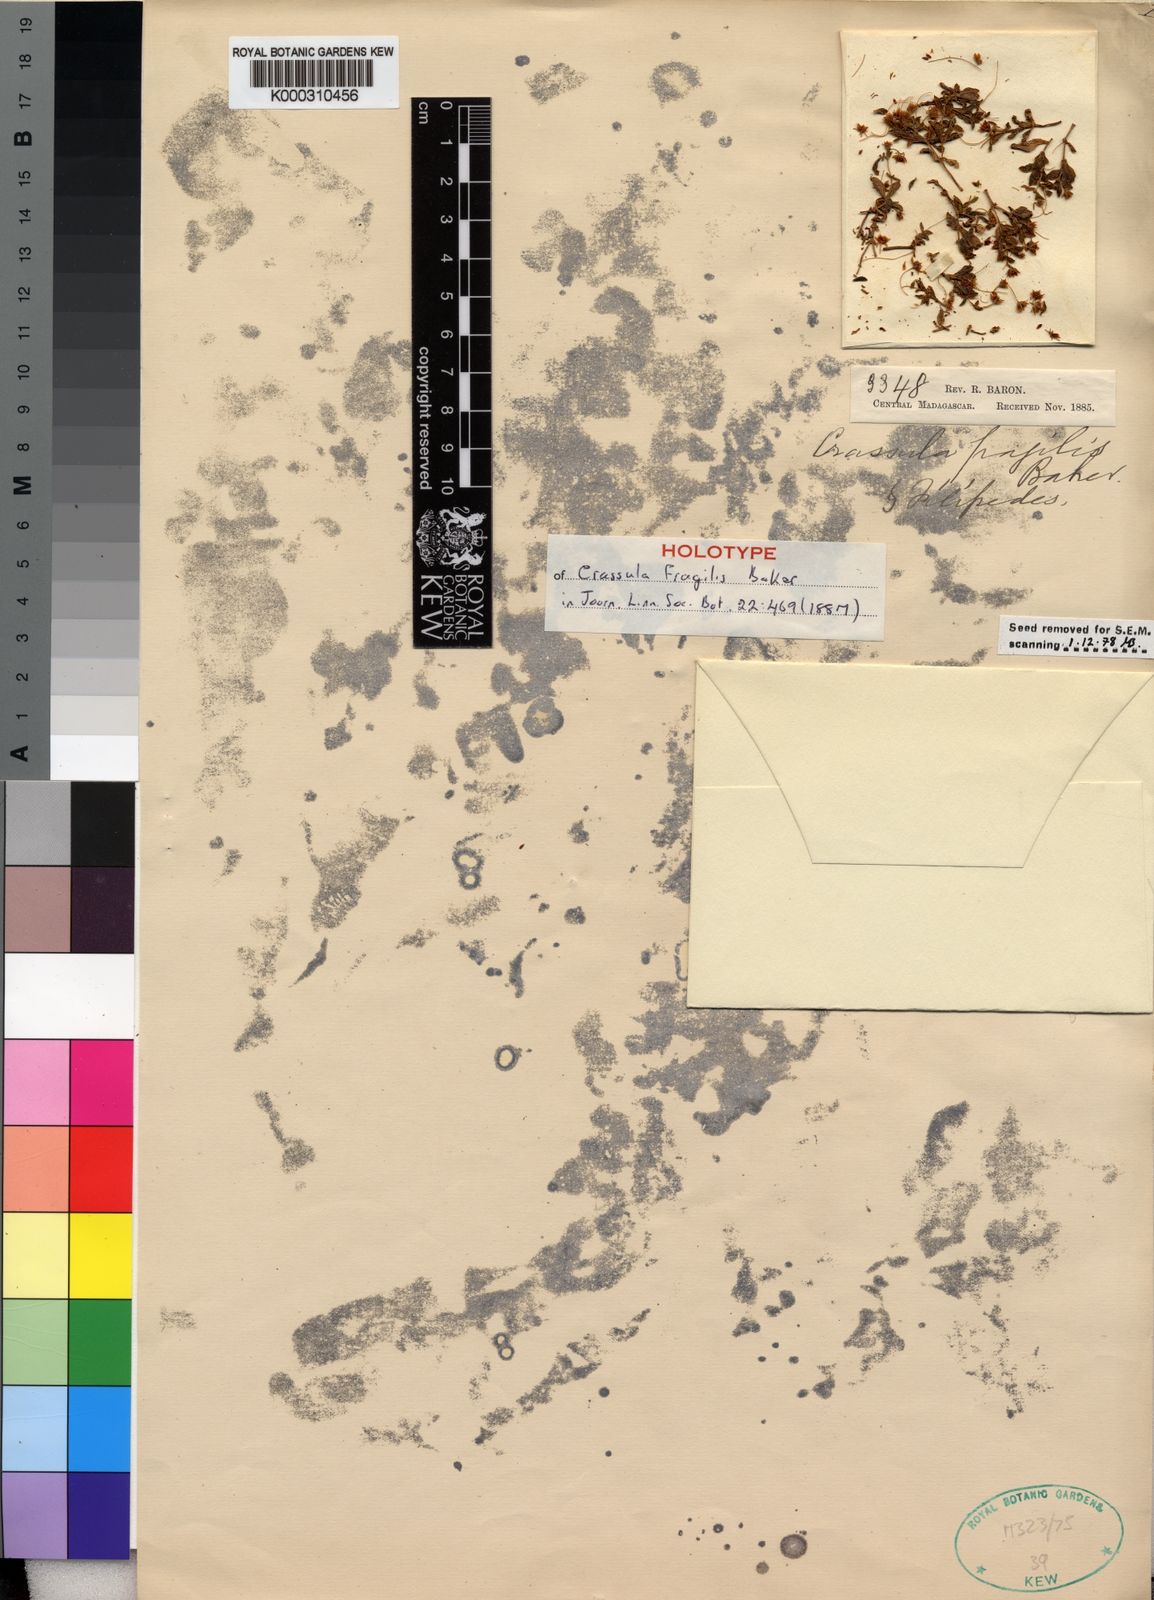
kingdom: Plantae
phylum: Tracheophyta
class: Magnoliopsida
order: Saxifragales
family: Crassulaceae
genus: Crassula
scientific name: Crassula expansa
